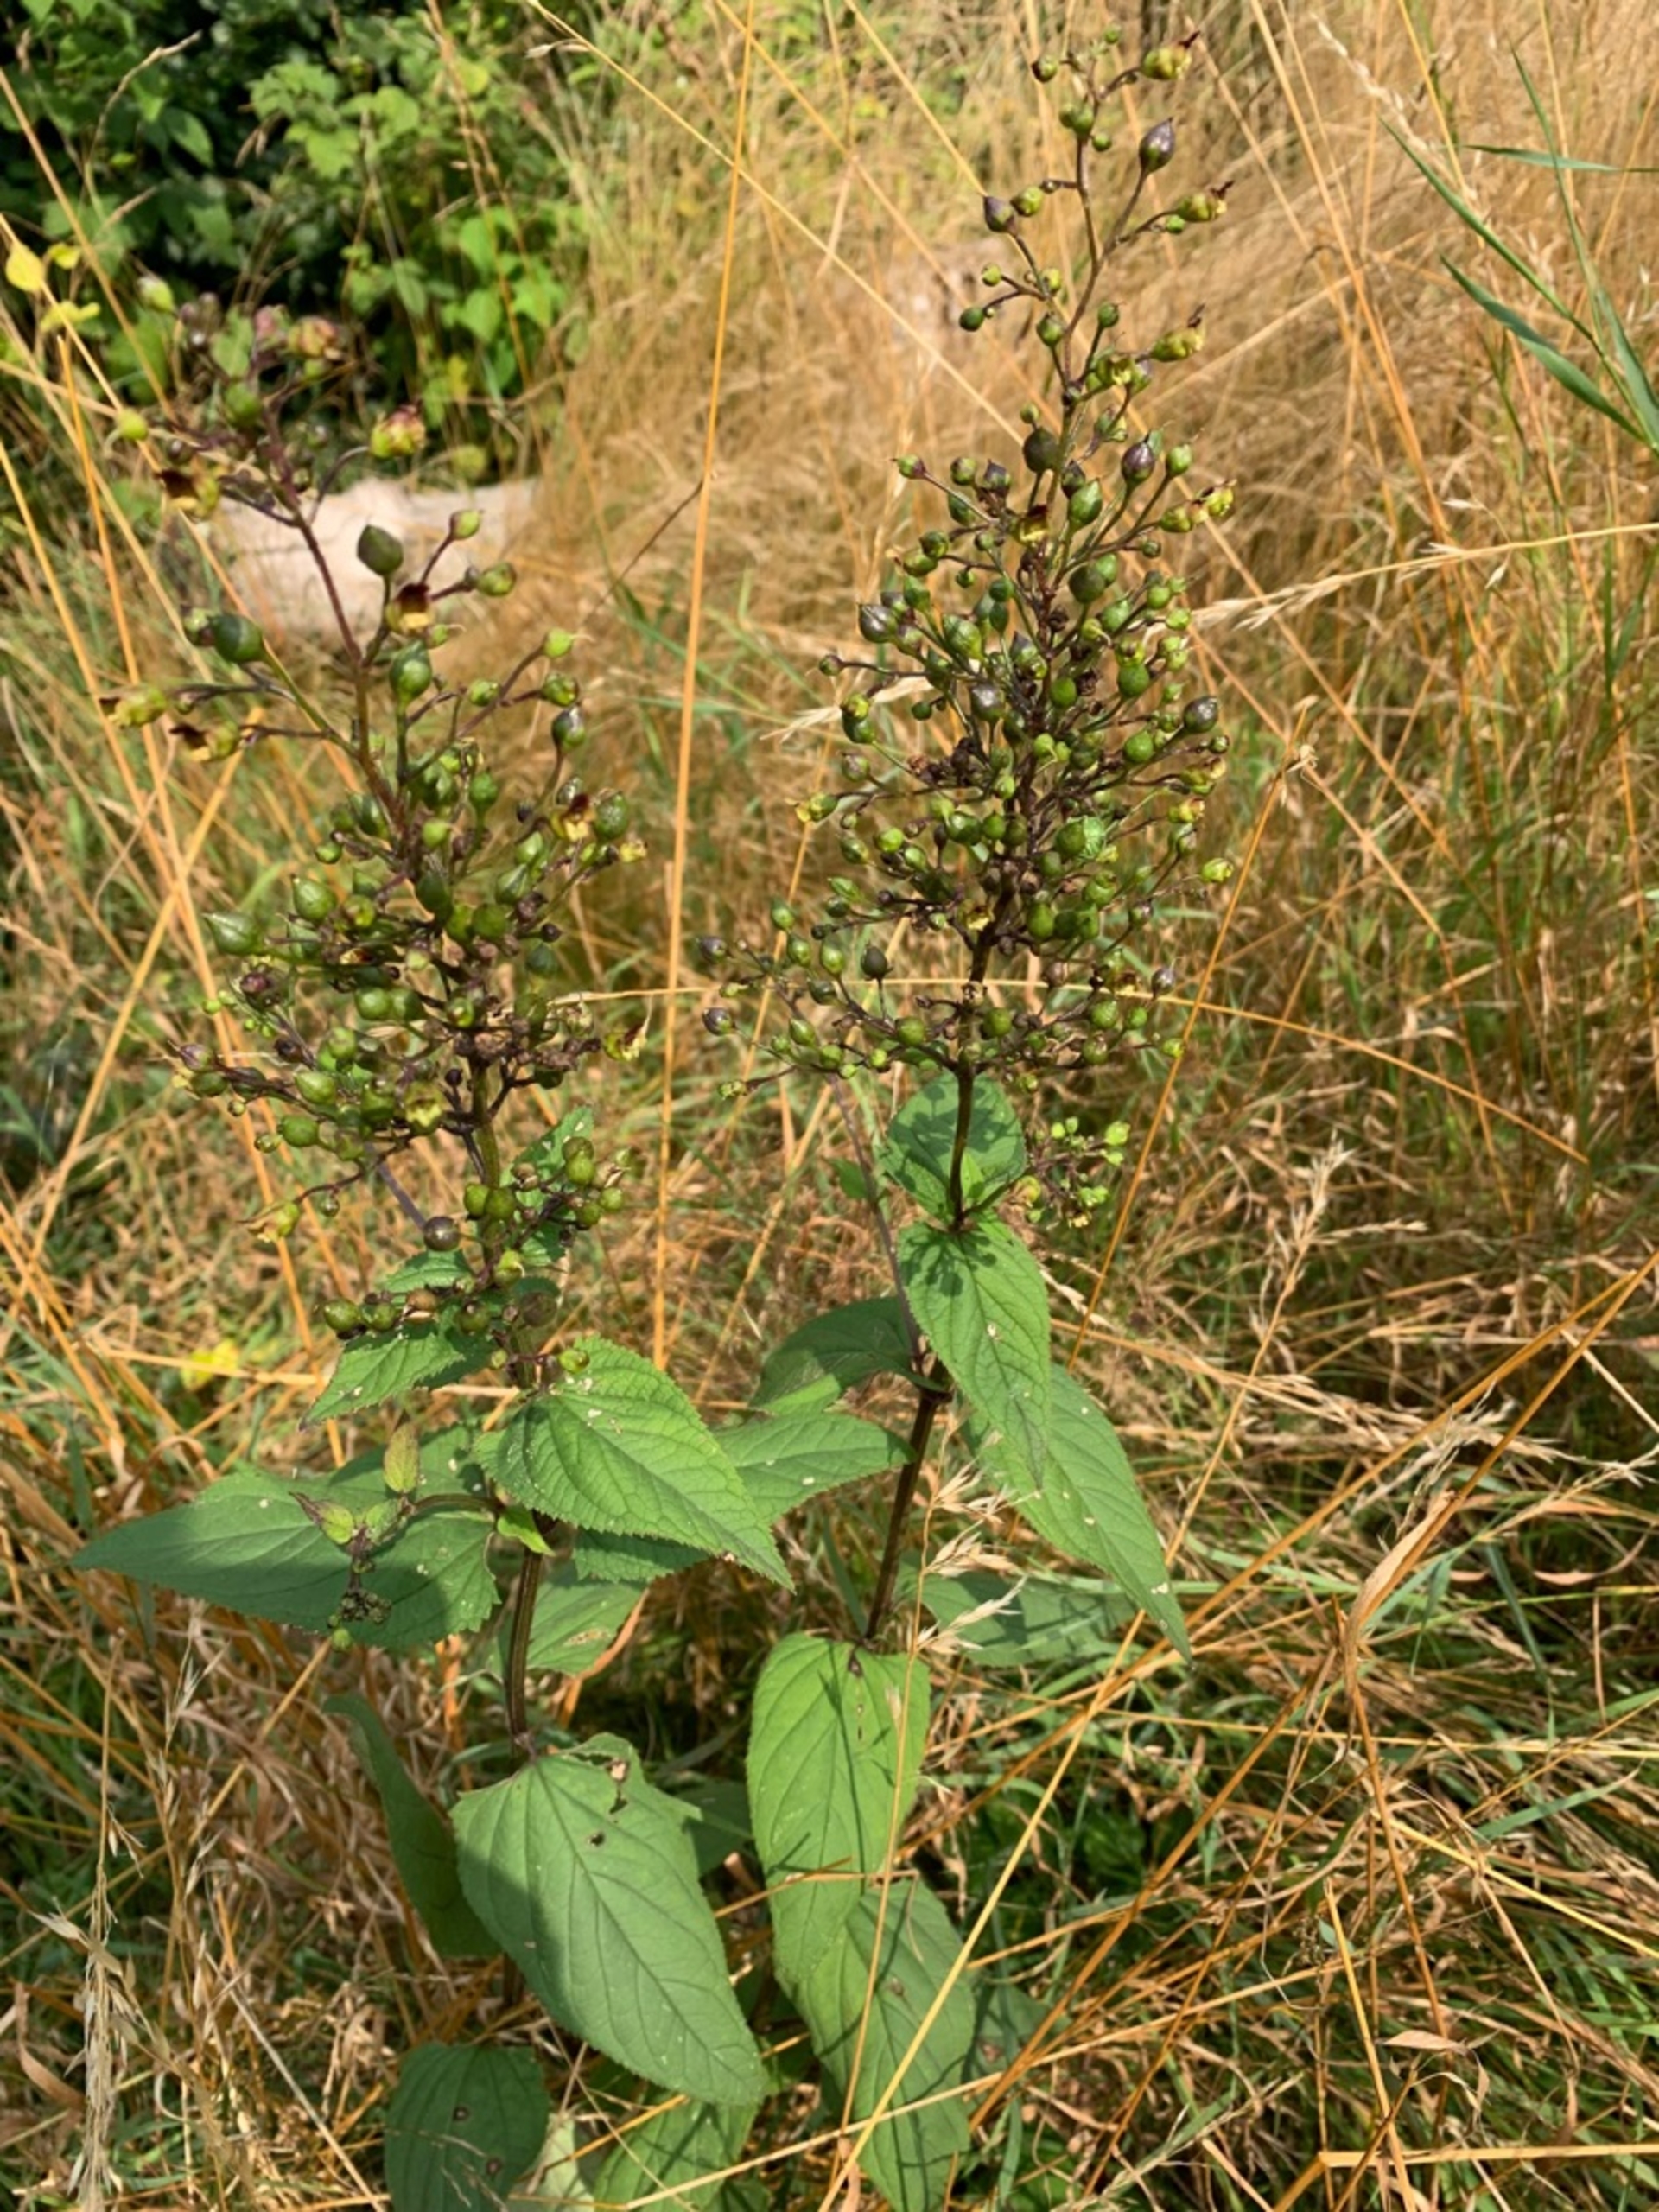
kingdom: Plantae
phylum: Tracheophyta
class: Magnoliopsida
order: Lamiales
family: Scrophulariaceae
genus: Scrophularia
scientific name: Scrophularia nodosa
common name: Knoldet brunrod
